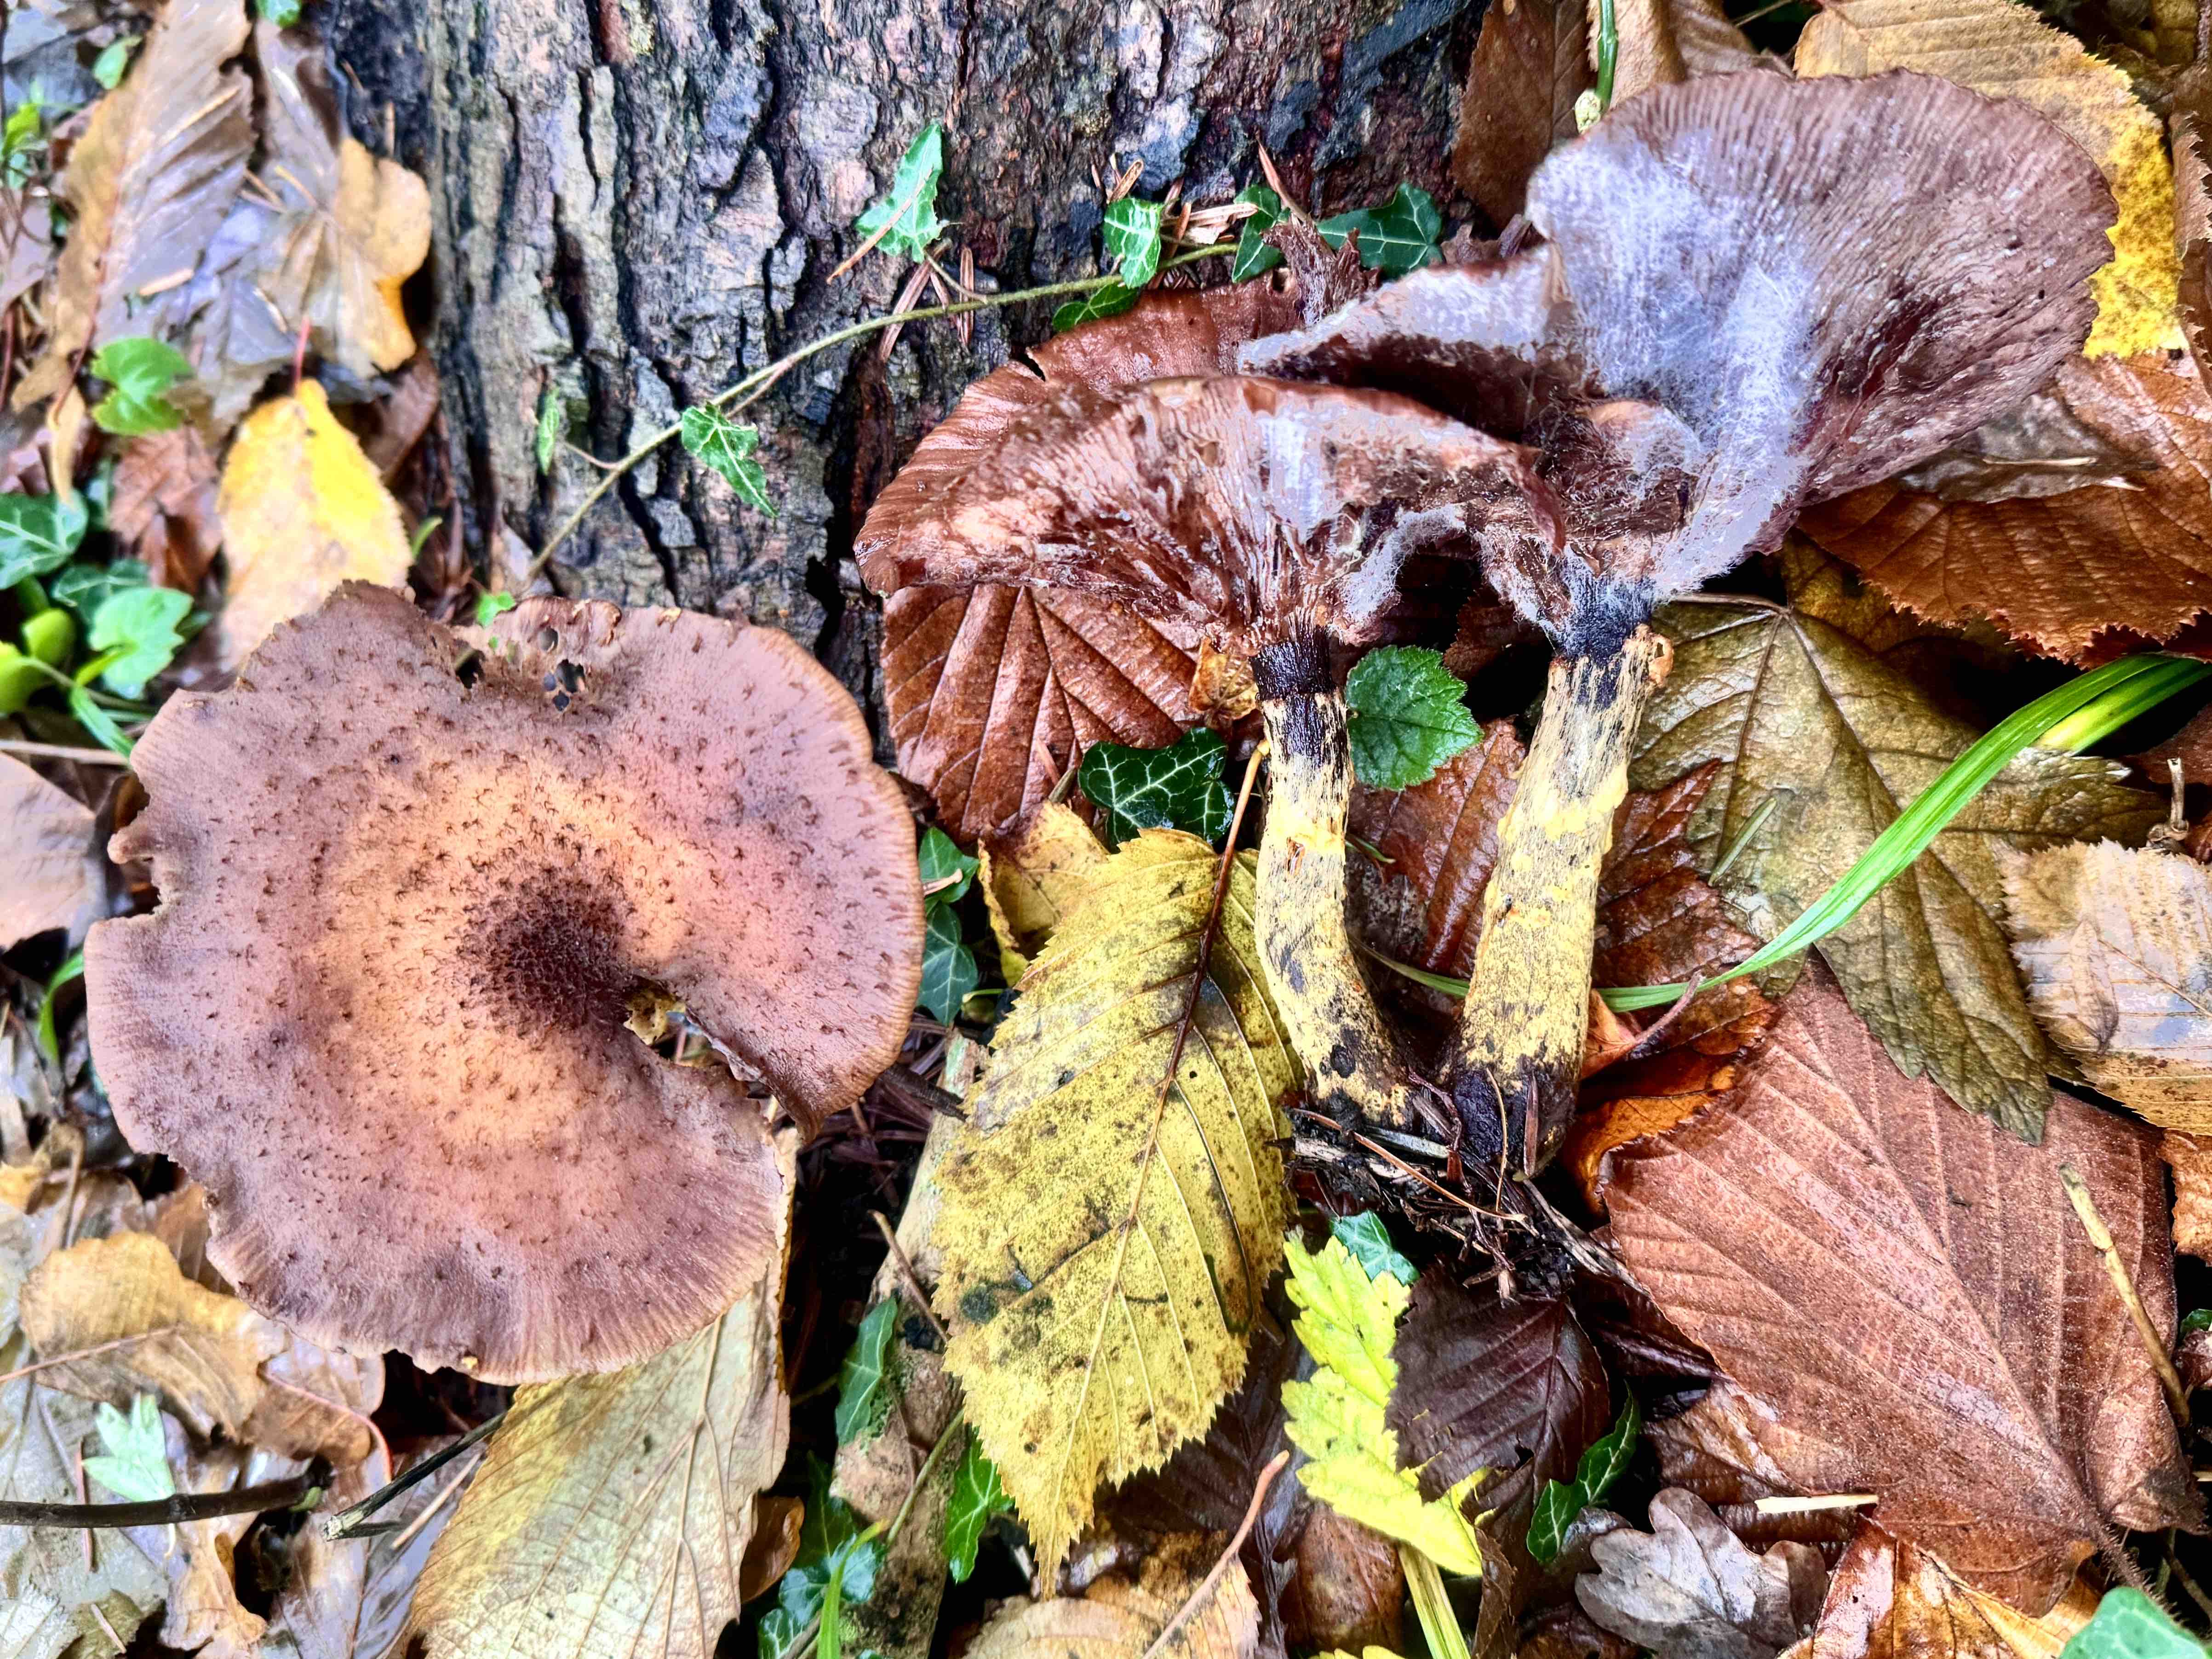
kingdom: Fungi
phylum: Basidiomycota
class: Agaricomycetes
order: Agaricales
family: Physalacriaceae
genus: Armillaria
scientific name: Armillaria
